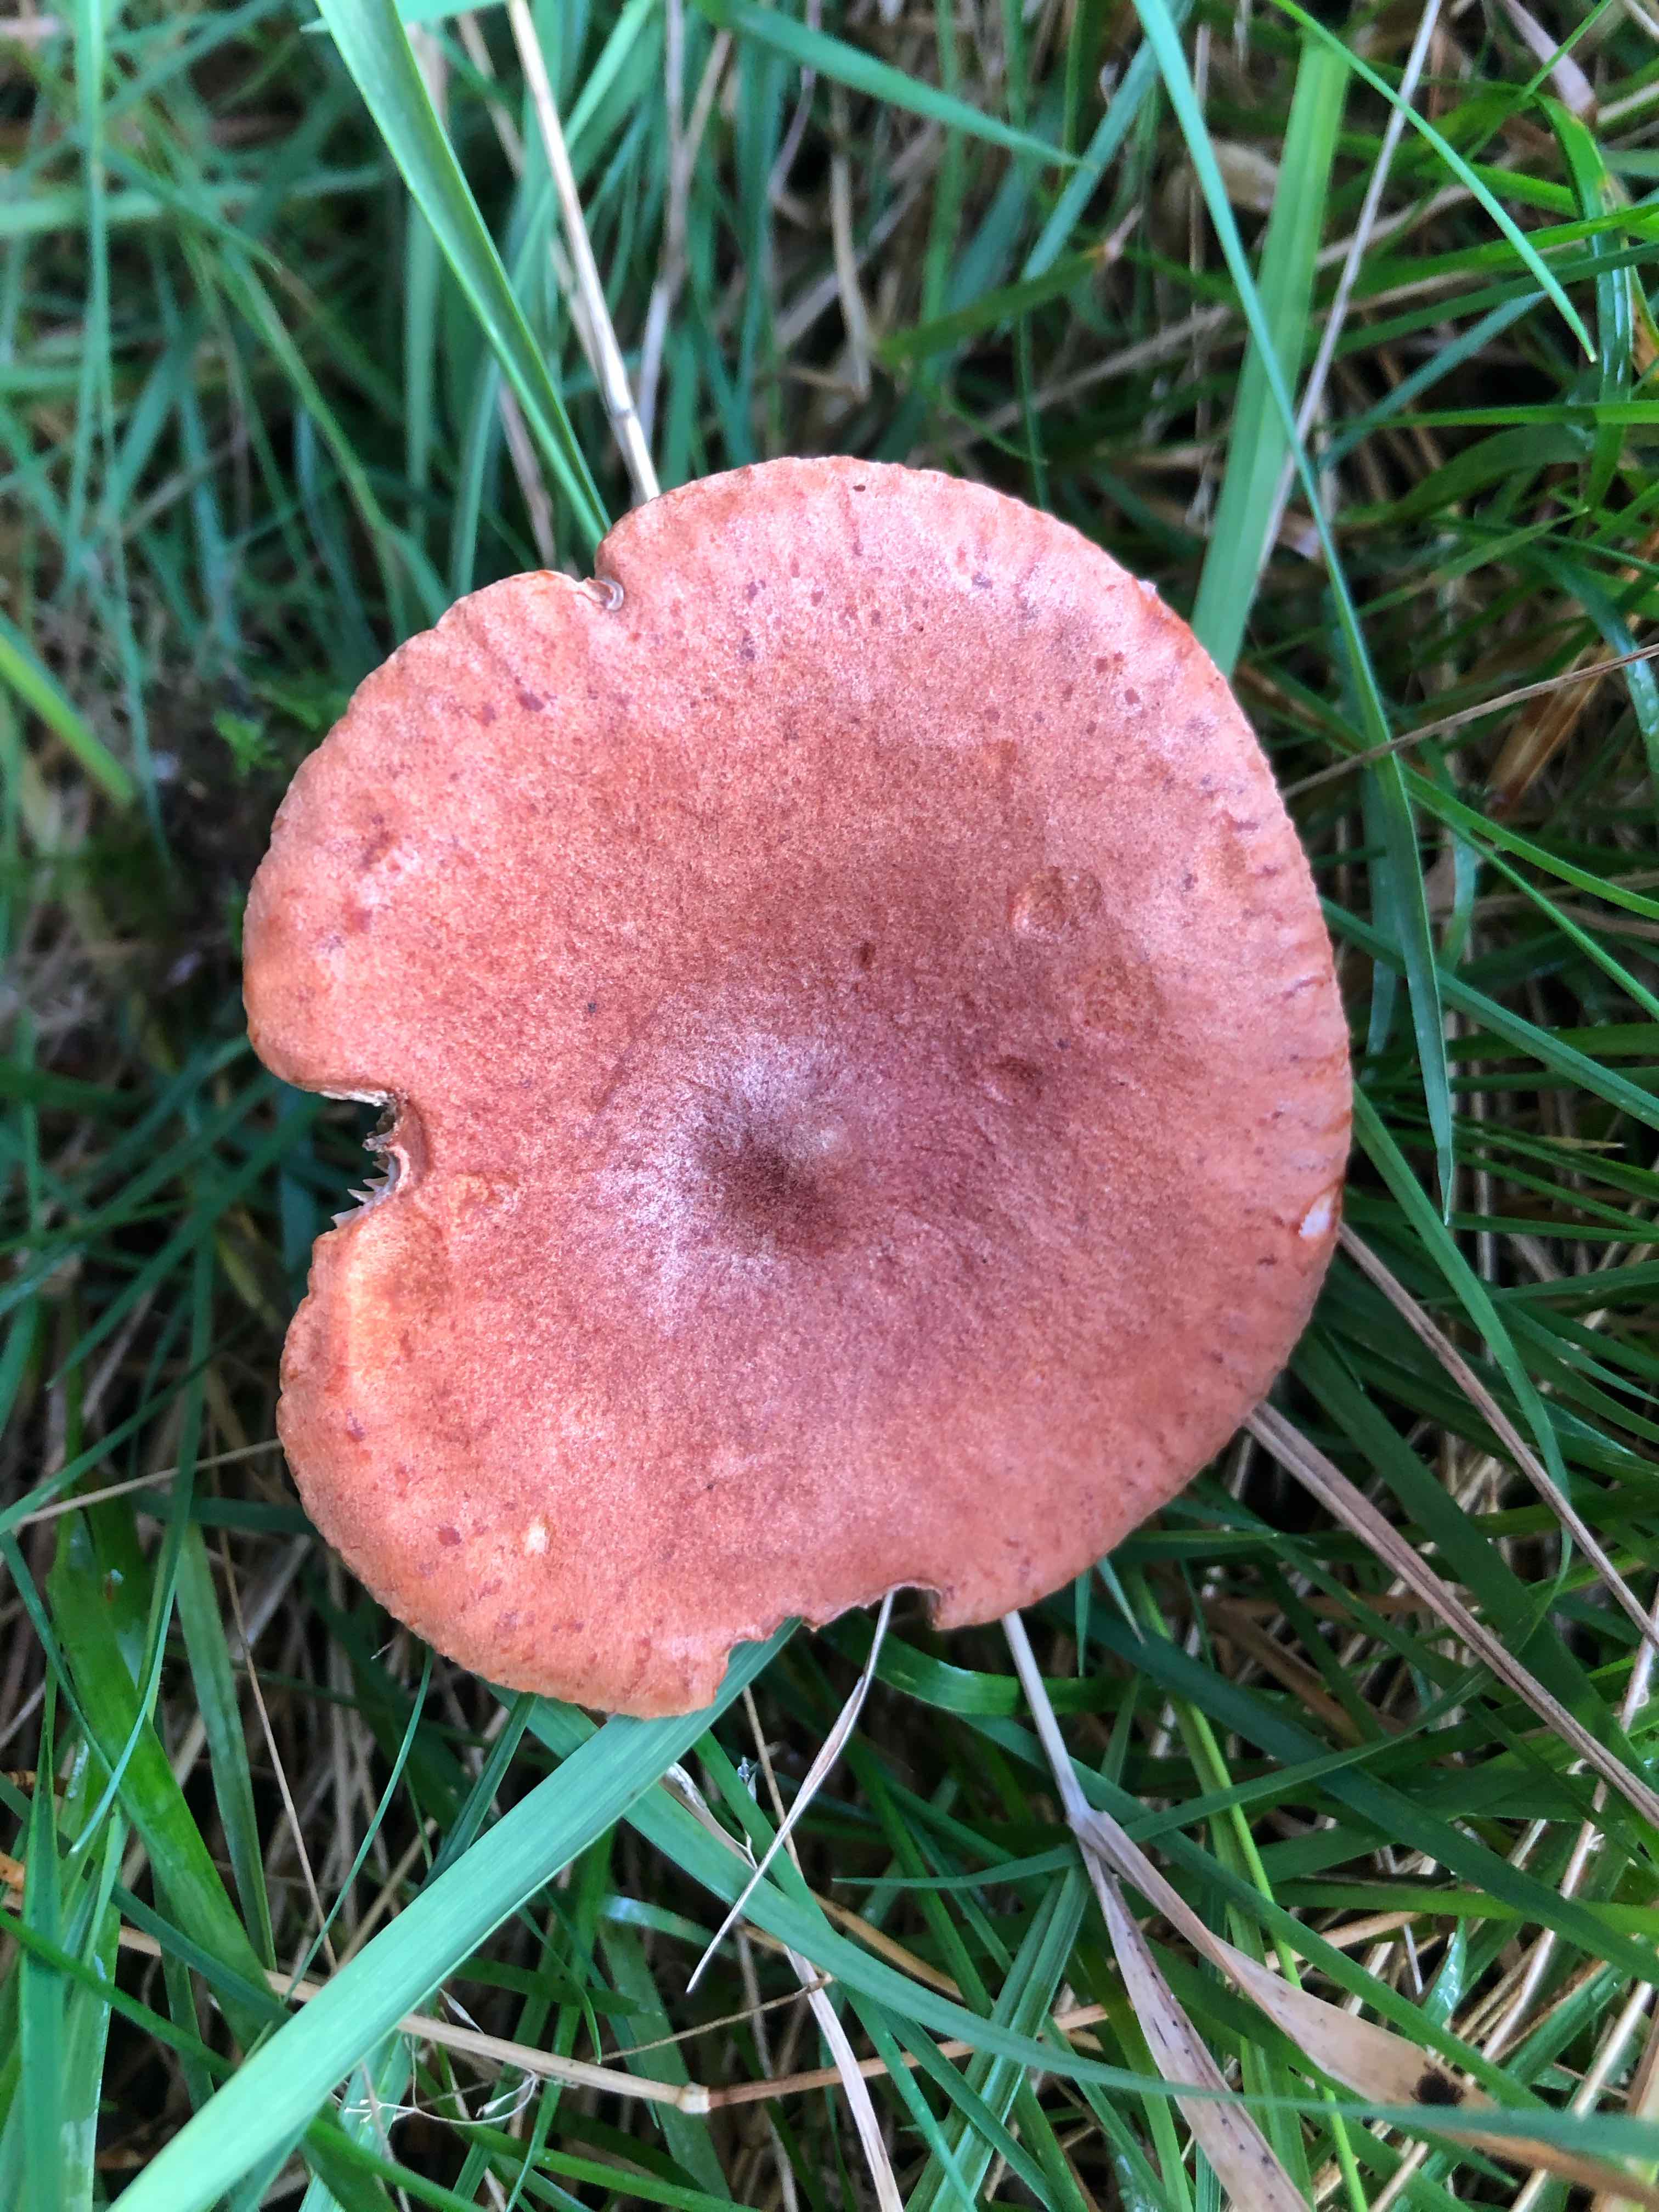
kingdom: Fungi
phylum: Basidiomycota
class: Agaricomycetes
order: Russulales
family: Russulaceae
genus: Lactarius
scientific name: Lactarius rufus
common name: rødbrun mælkehat
